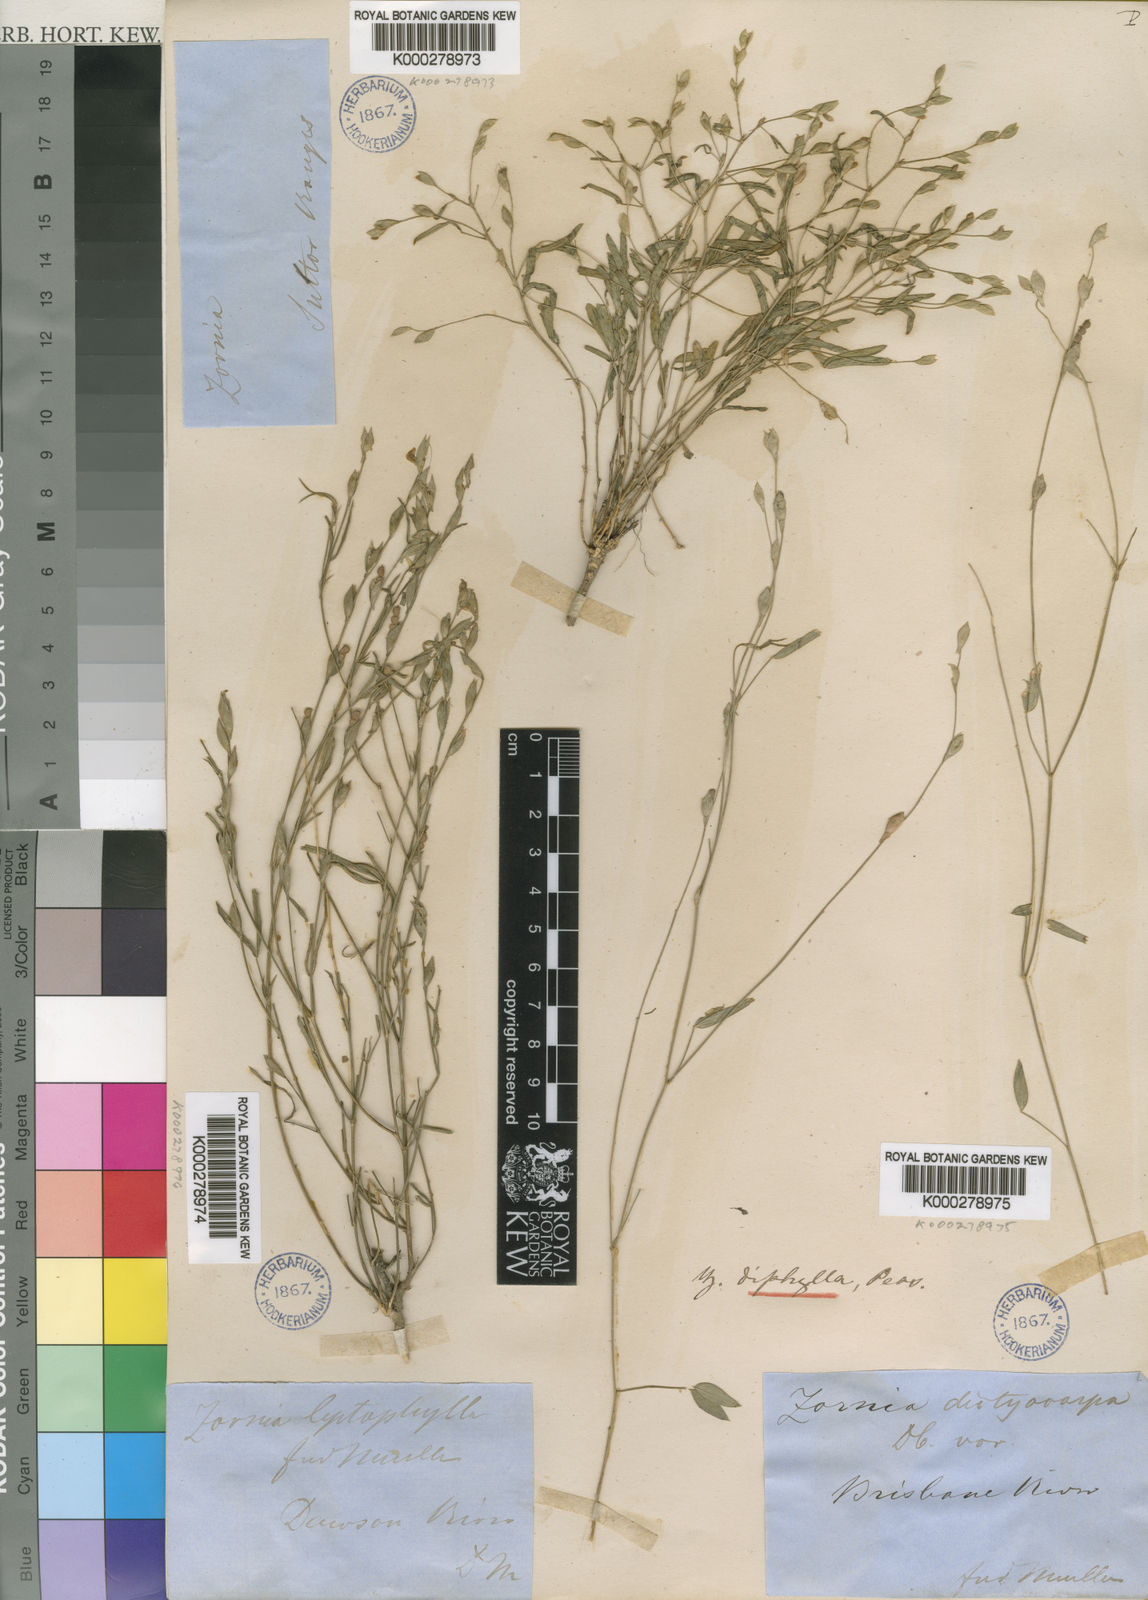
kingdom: Plantae
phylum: Tracheophyta
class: Magnoliopsida
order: Fabales
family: Fabaceae
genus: Zornia
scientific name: Zornia
